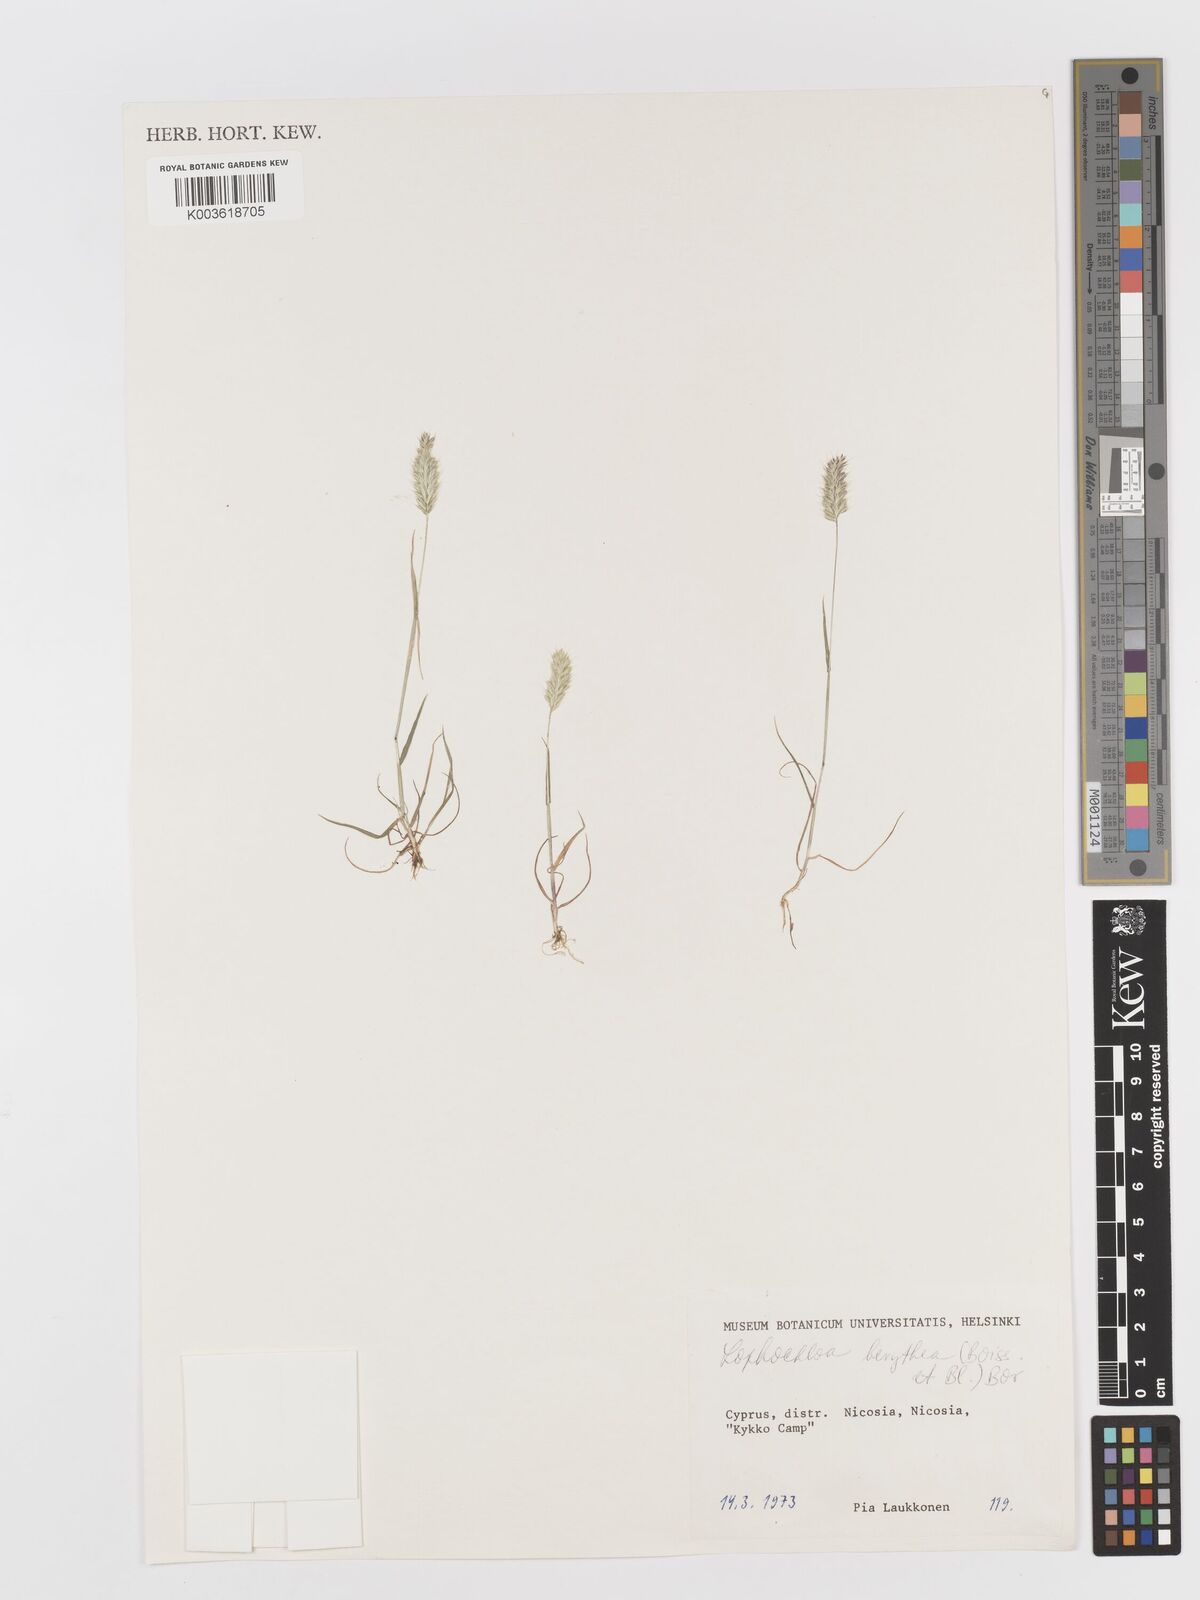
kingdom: Plantae
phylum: Tracheophyta
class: Liliopsida
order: Poales
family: Poaceae
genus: Rostraria
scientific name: Rostraria smyrnaea
